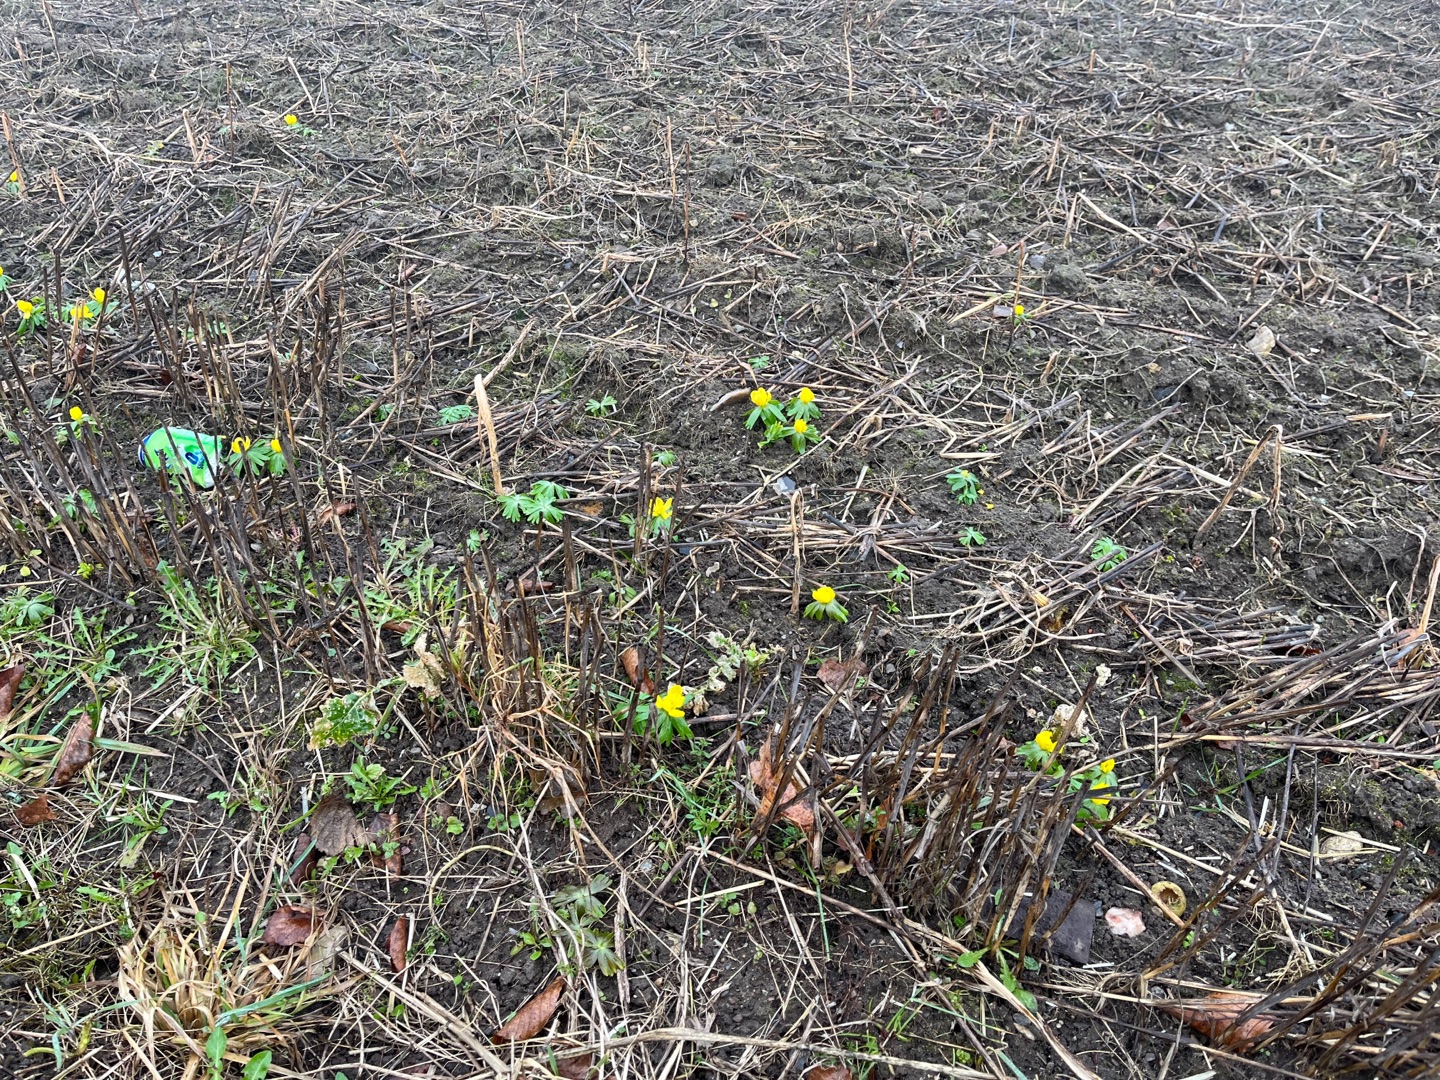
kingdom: Plantae
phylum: Tracheophyta
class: Magnoliopsida
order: Ranunculales
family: Ranunculaceae
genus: Eranthis
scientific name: Eranthis hyemalis
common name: Erantis
